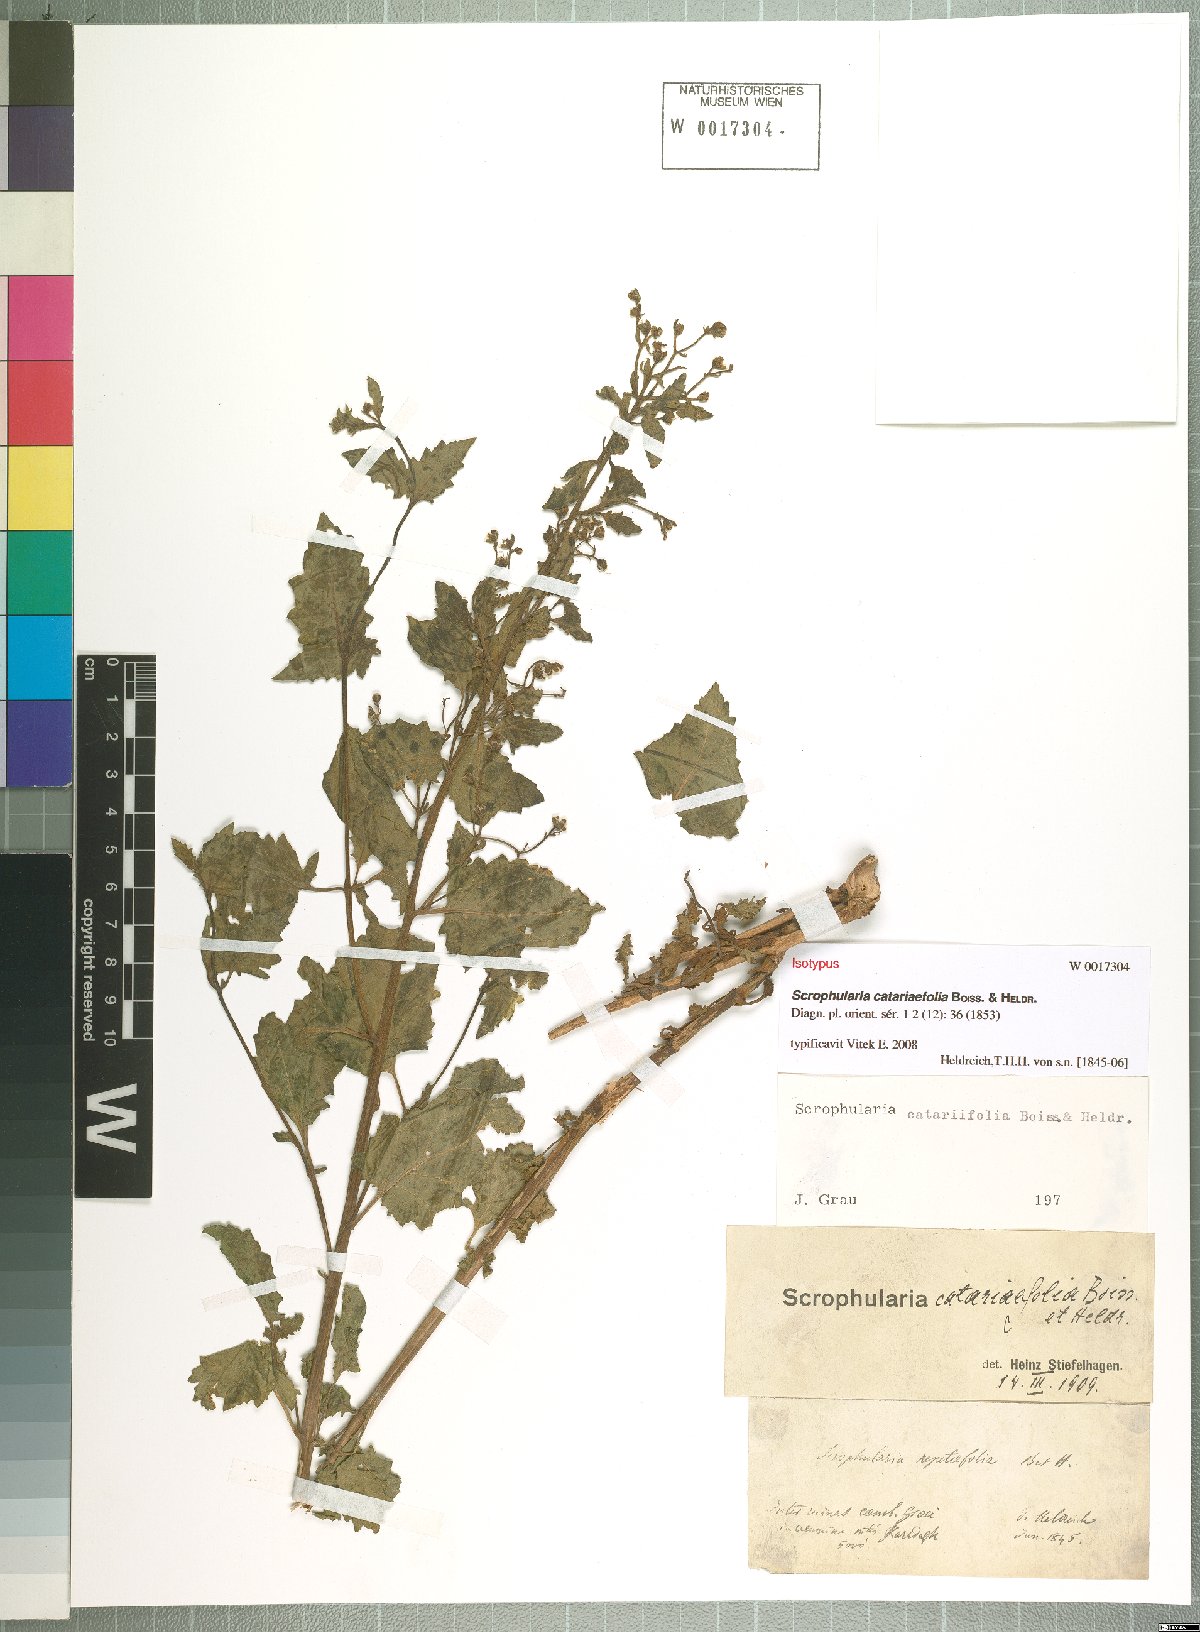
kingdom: Plantae
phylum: Tracheophyta
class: Magnoliopsida
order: Lamiales
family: Scrophulariaceae
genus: Scrophularia
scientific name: Scrophularia catariifolia
